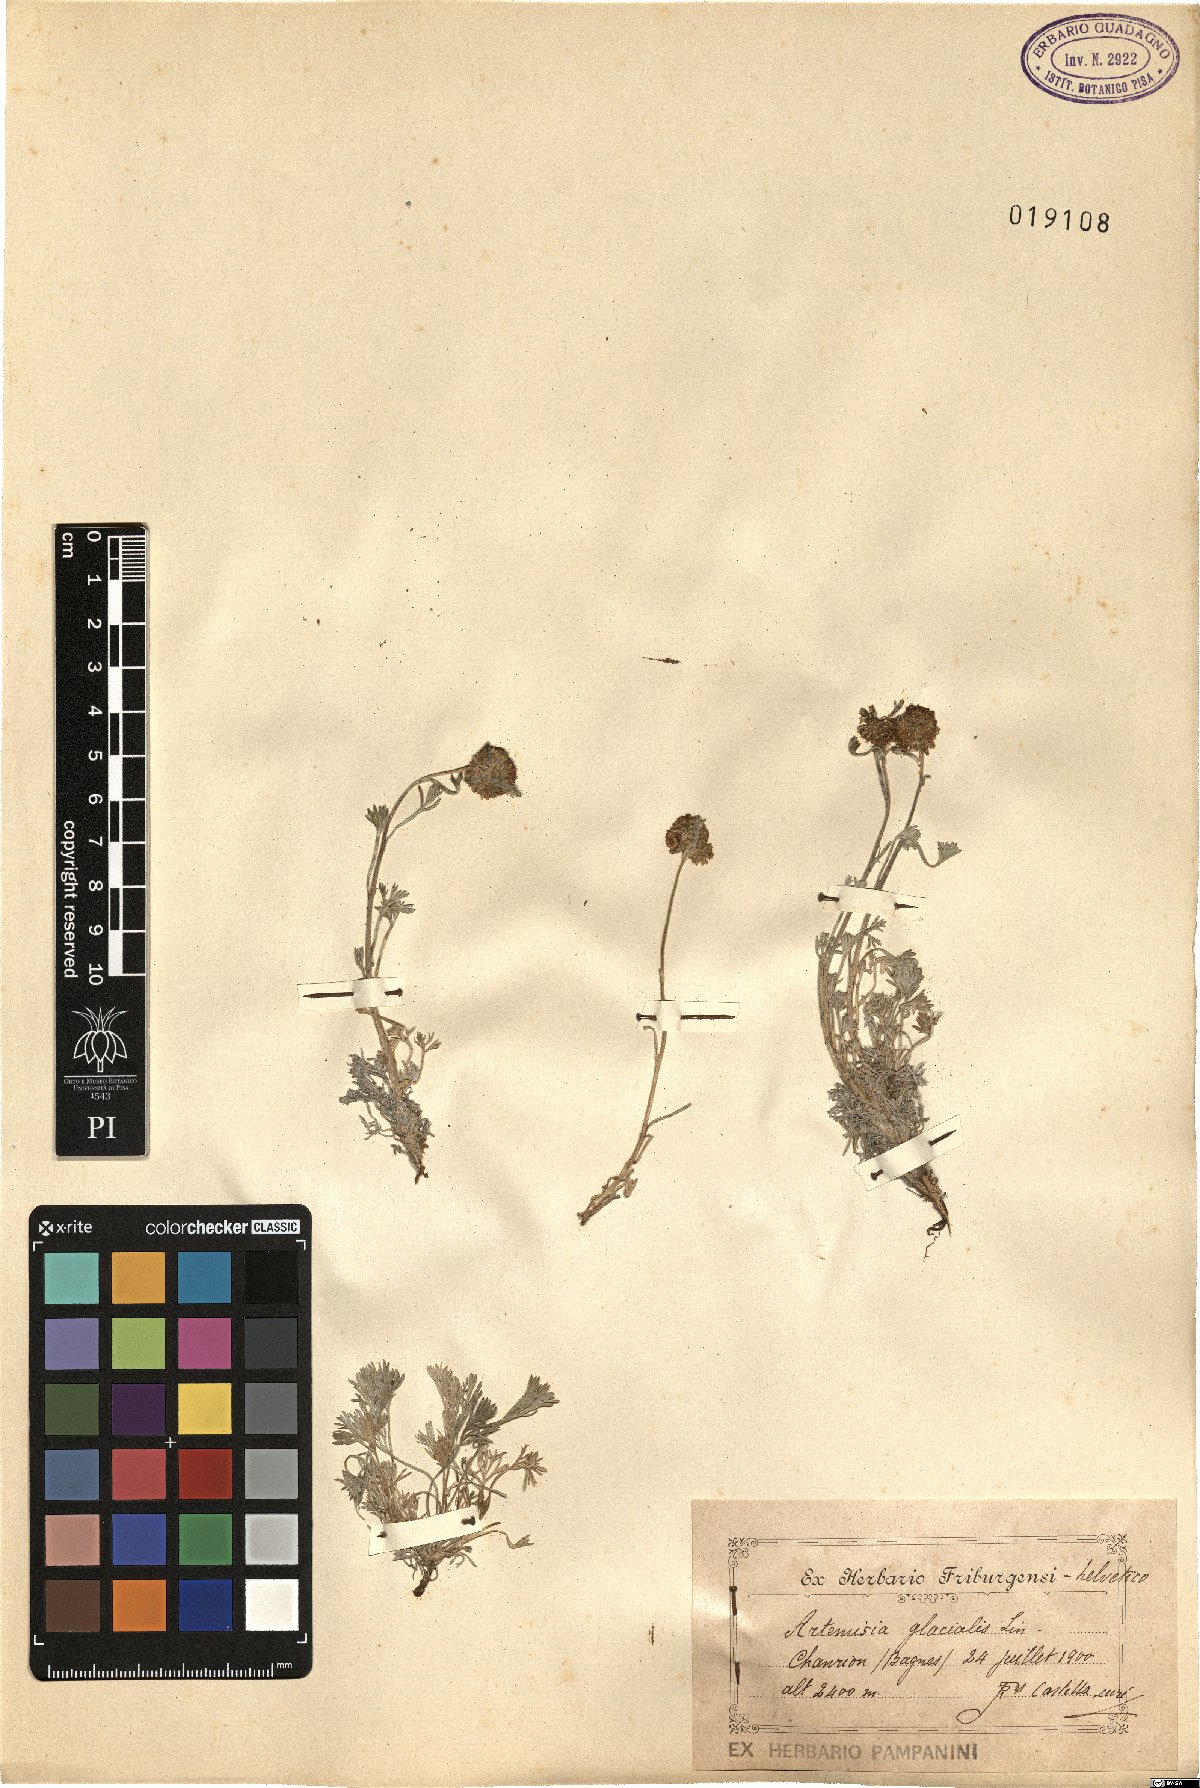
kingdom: Plantae
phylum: Tracheophyta
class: Magnoliopsida
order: Asterales
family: Asteraceae
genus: Artemisia
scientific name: Artemisia glacialis
